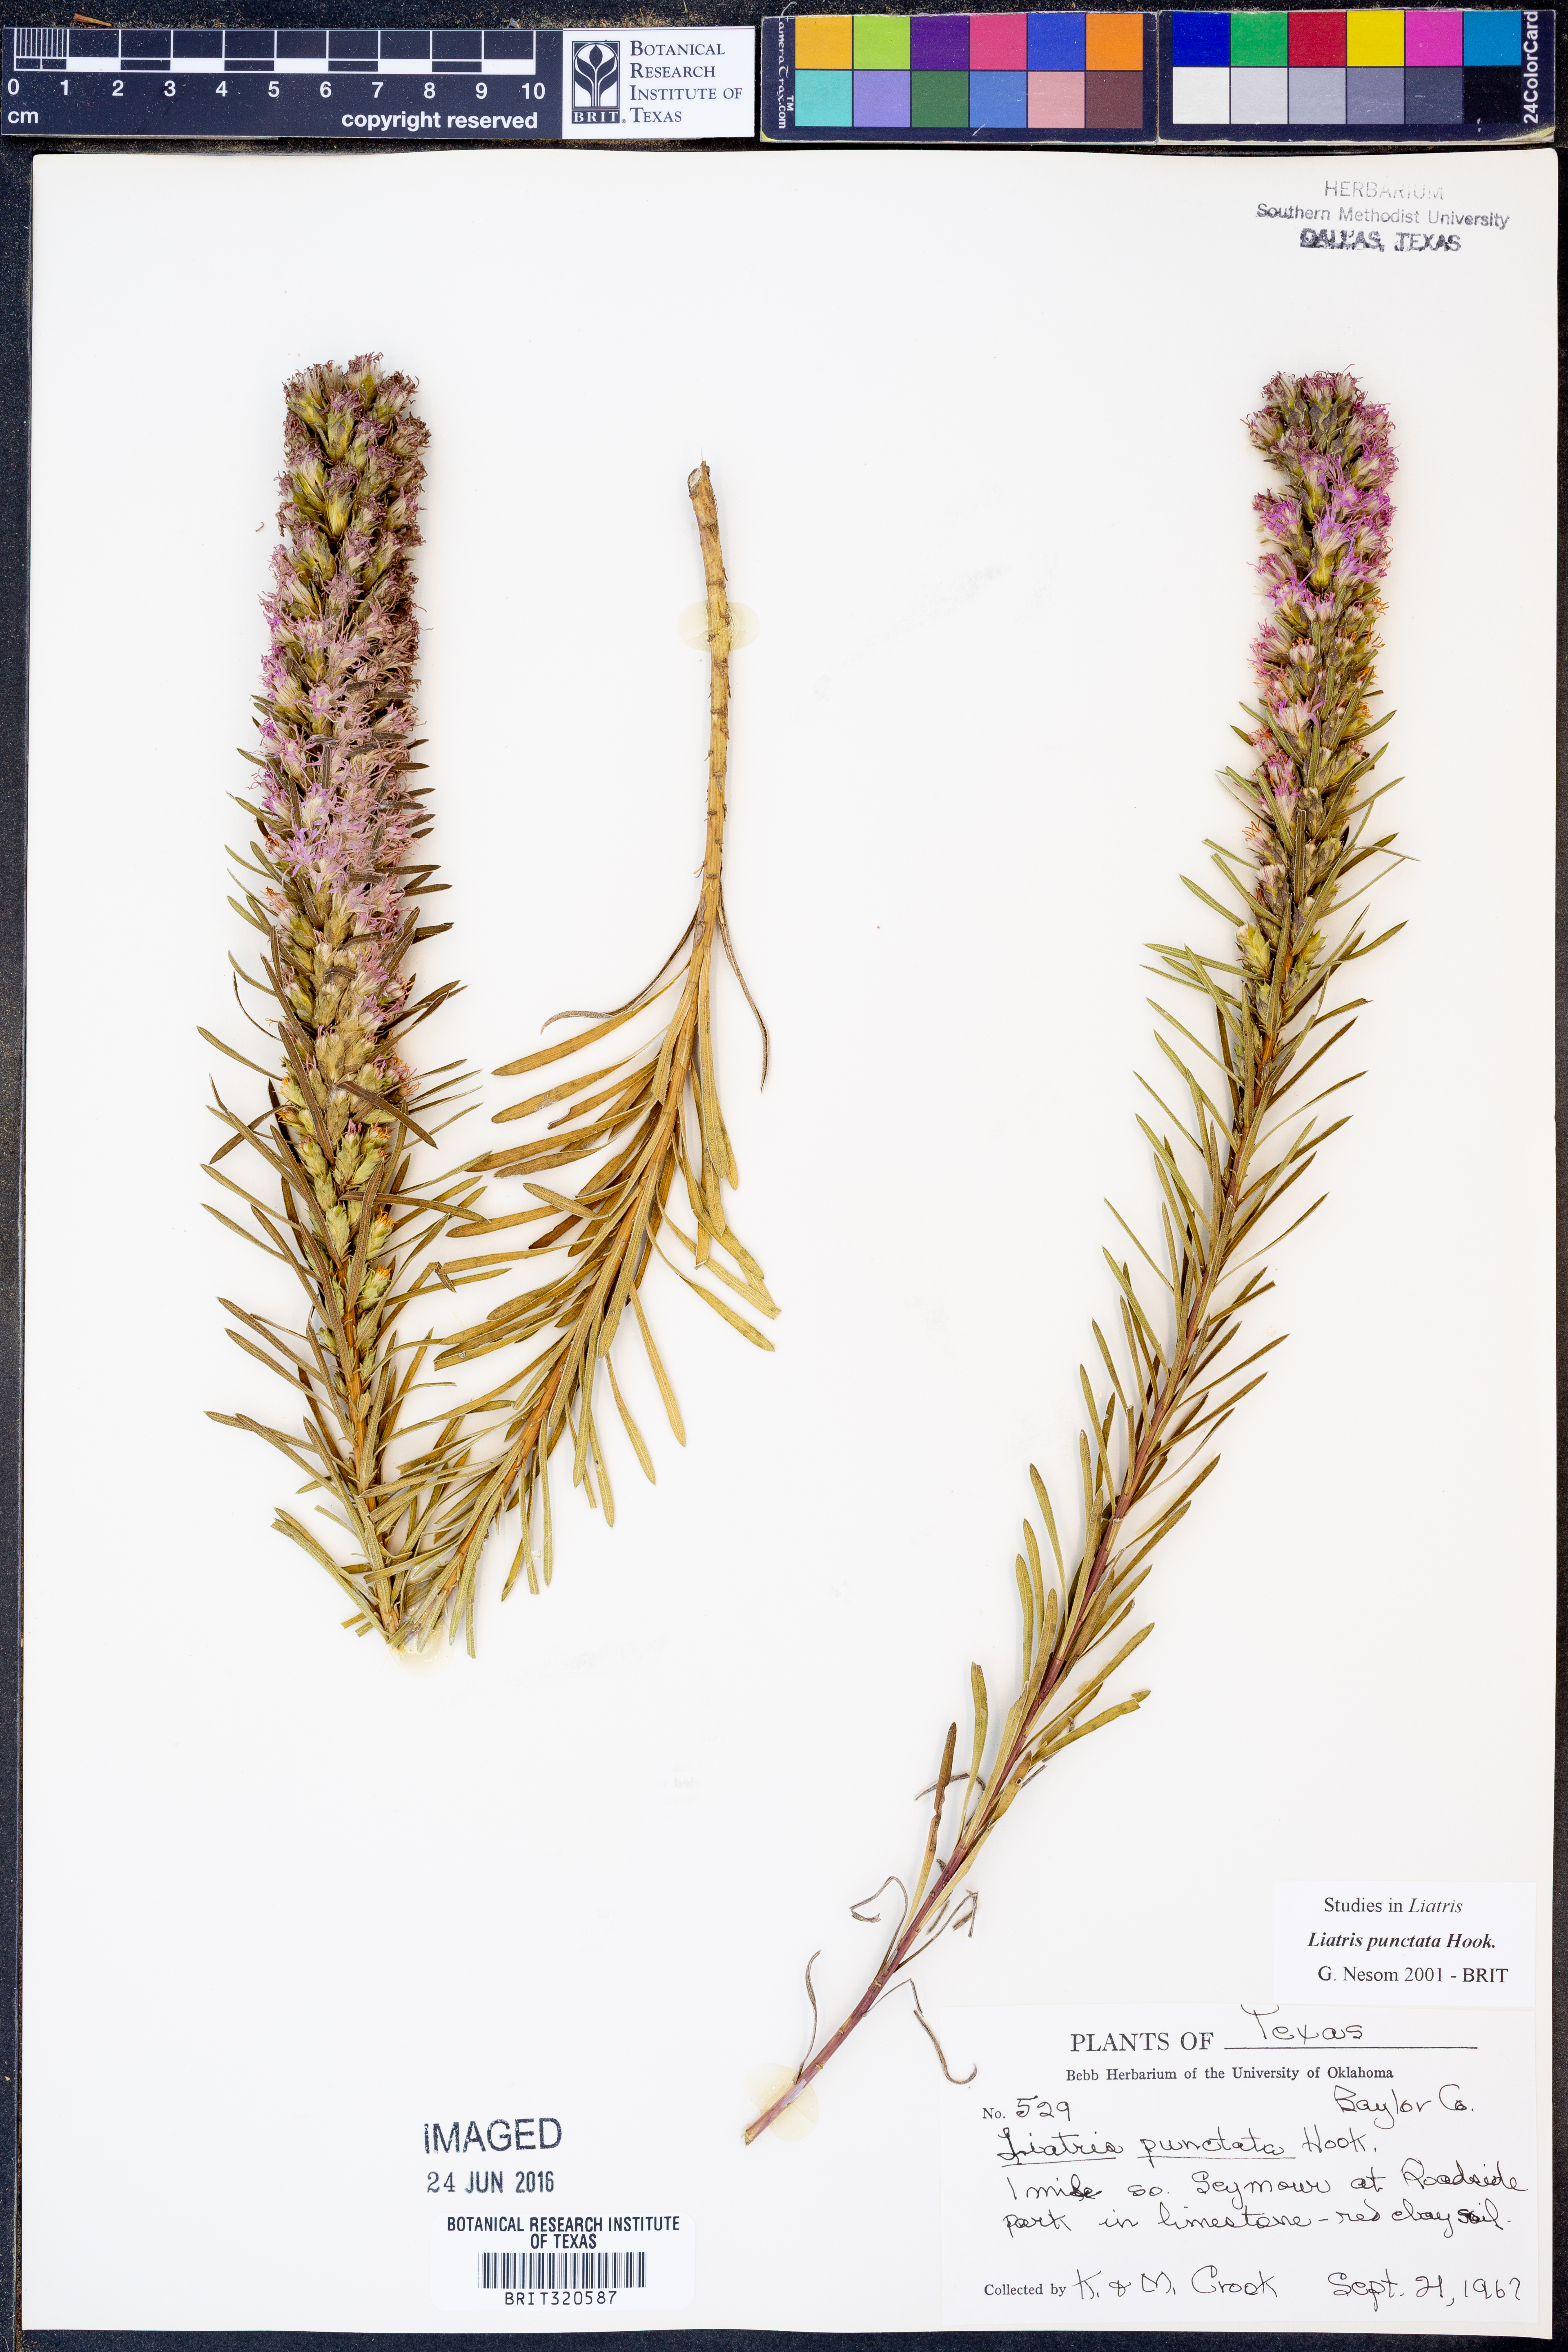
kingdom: Plantae
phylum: Tracheophyta
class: Magnoliopsida
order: Asterales
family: Asteraceae
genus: Liatris
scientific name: Liatris punctata
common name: Dotted gayfeather
